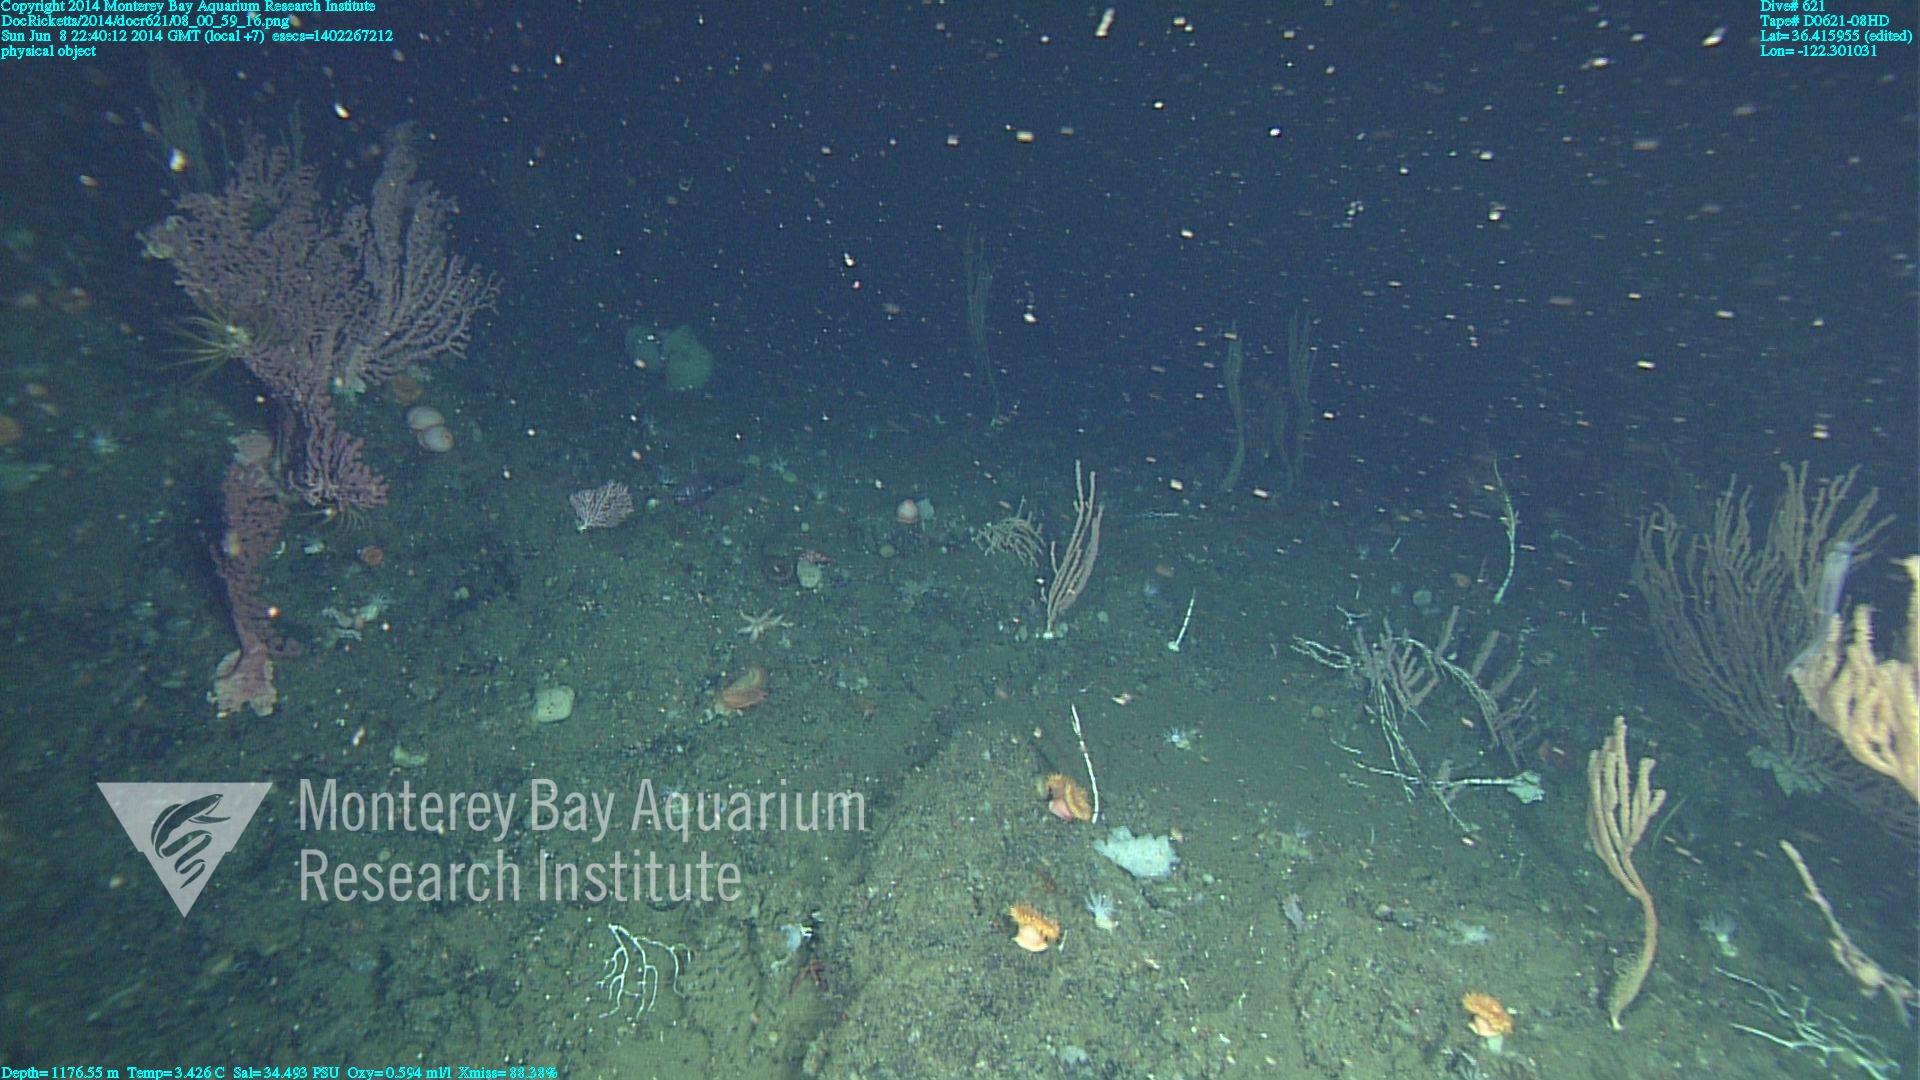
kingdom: Animalia
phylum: Cnidaria
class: Anthozoa
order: Scleralcyonacea
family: Coralliidae
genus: Paragorgia
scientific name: Paragorgia arborea
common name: Bubble gum coral
